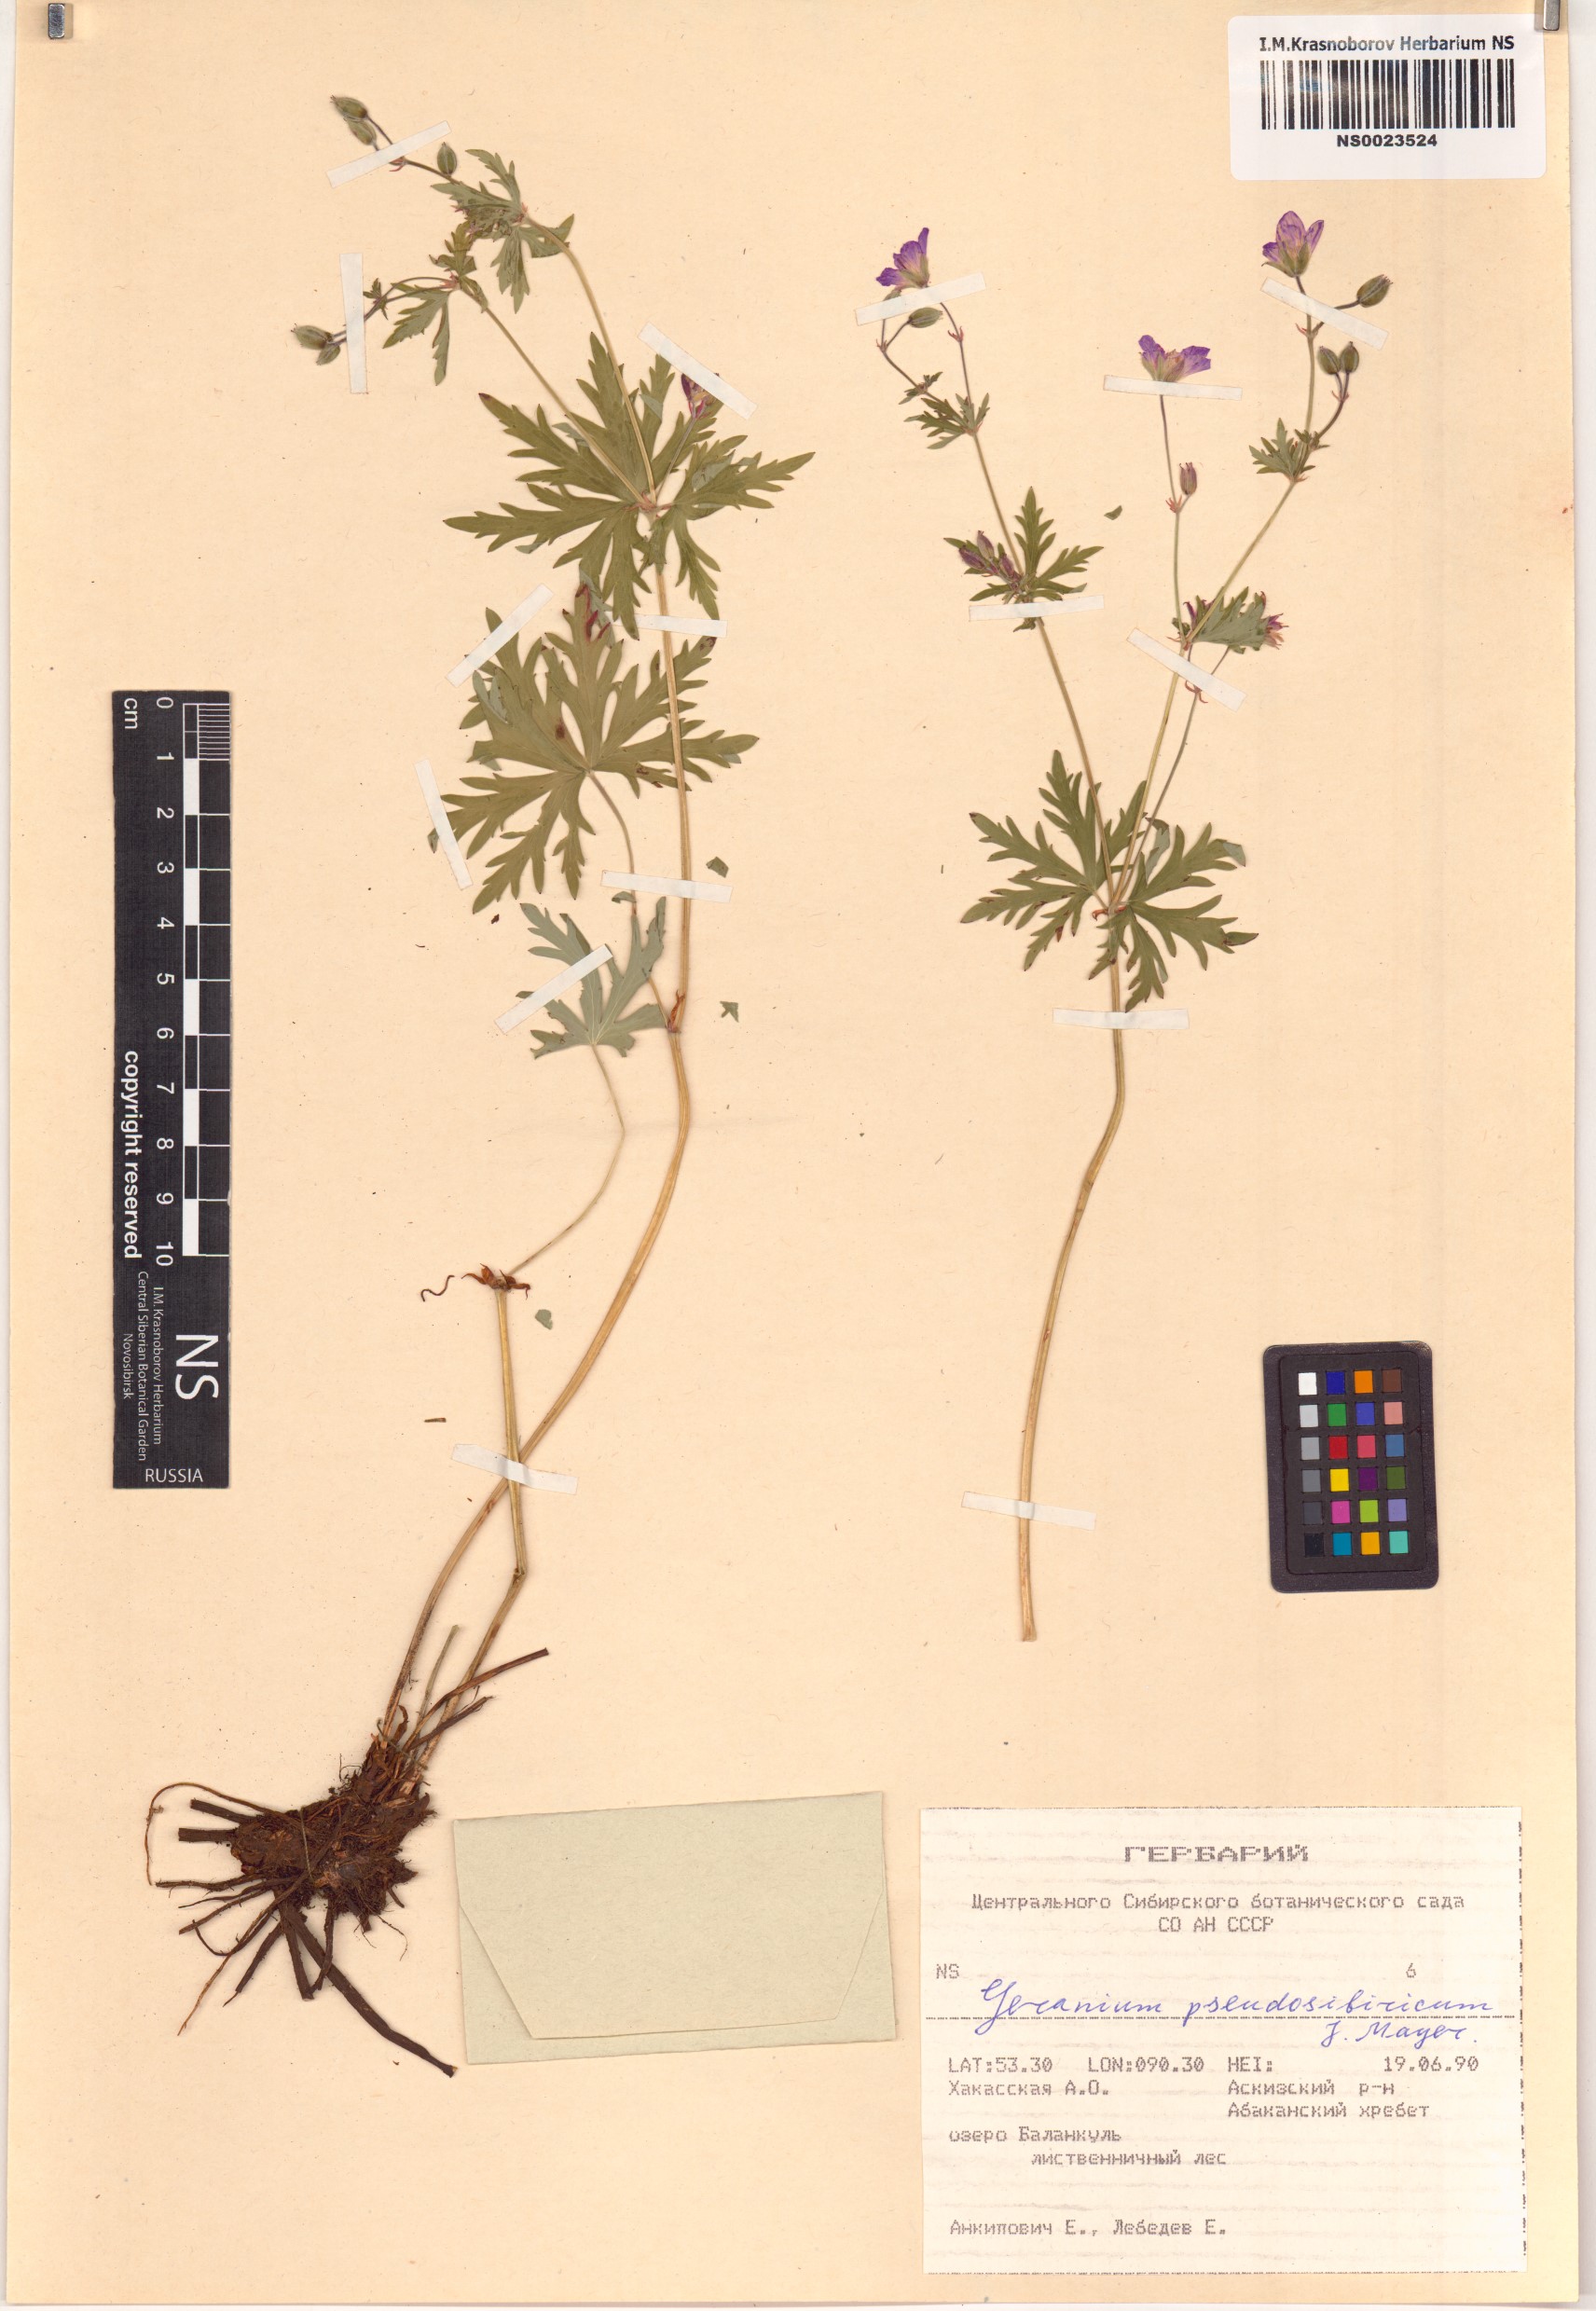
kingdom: Plantae
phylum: Tracheophyta
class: Magnoliopsida
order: Geraniales
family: Geraniaceae
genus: Geranium
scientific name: Geranium pseudosibiricum
